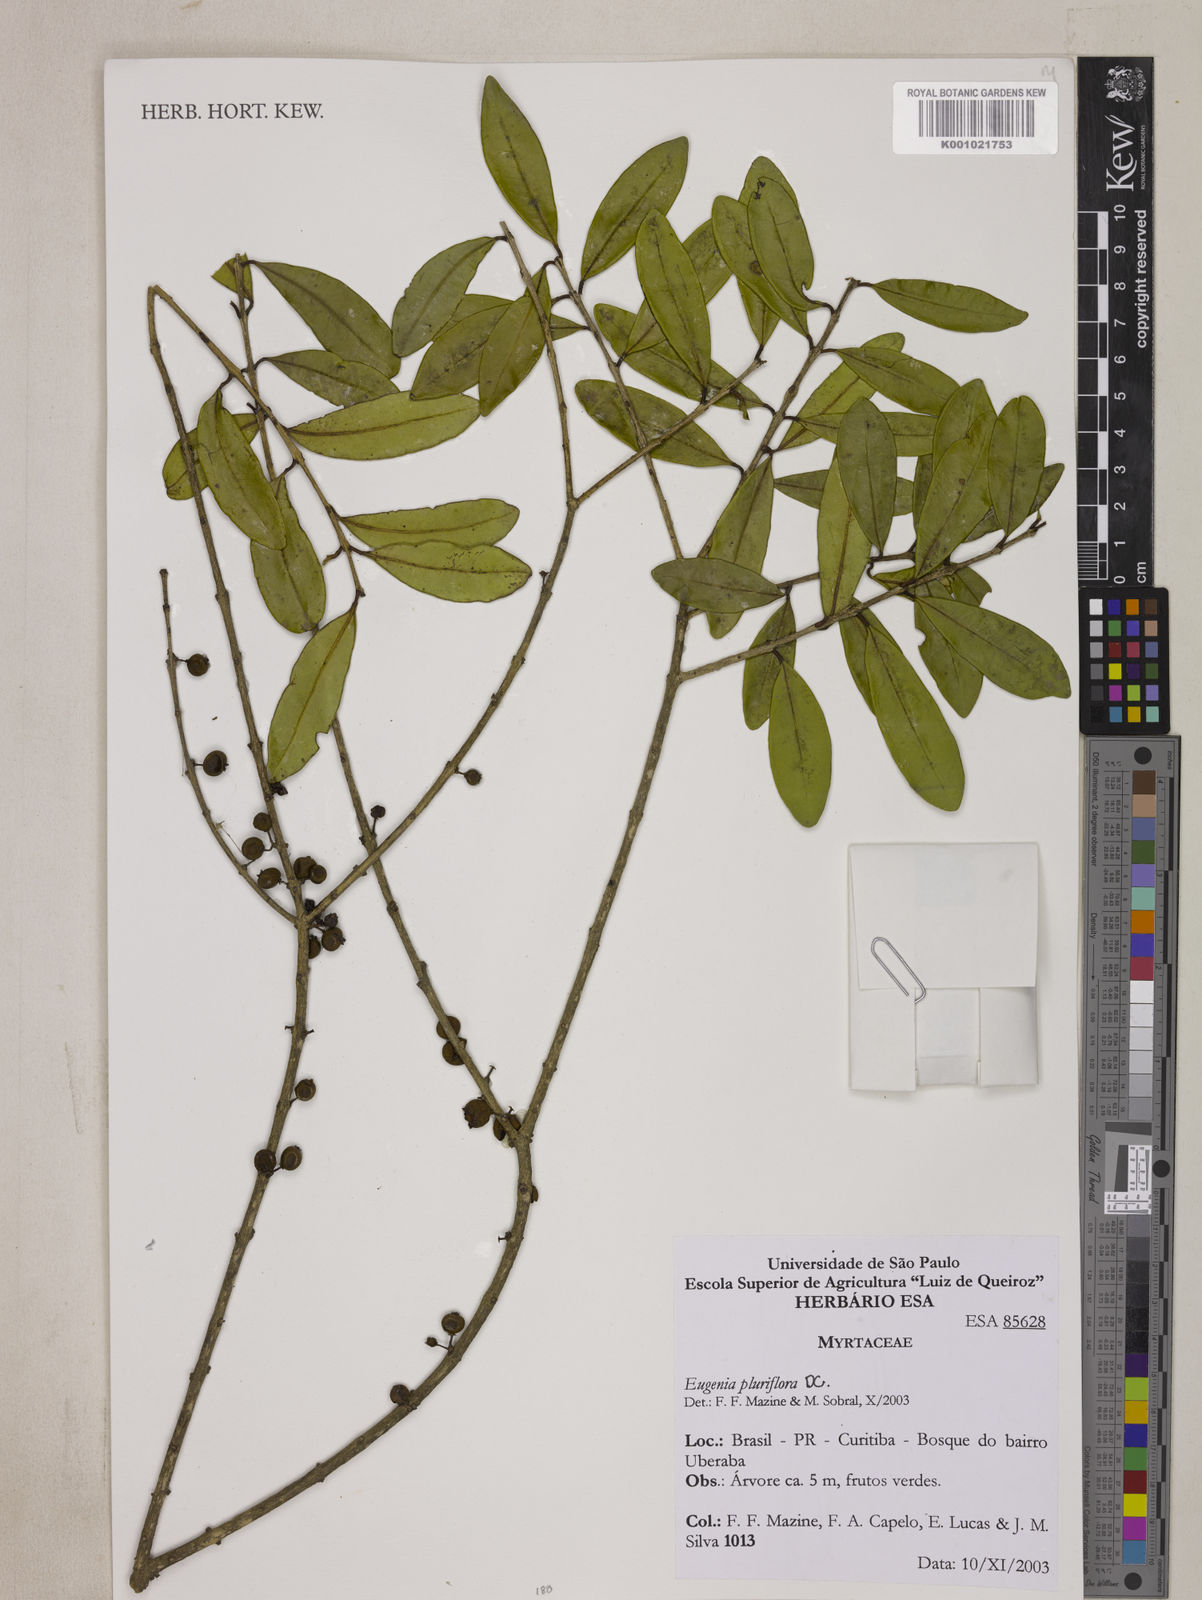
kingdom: Plantae
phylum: Tracheophyta
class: Magnoliopsida
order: Myrtales
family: Myrtaceae
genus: Eugenia
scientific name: Eugenia pluriflora
